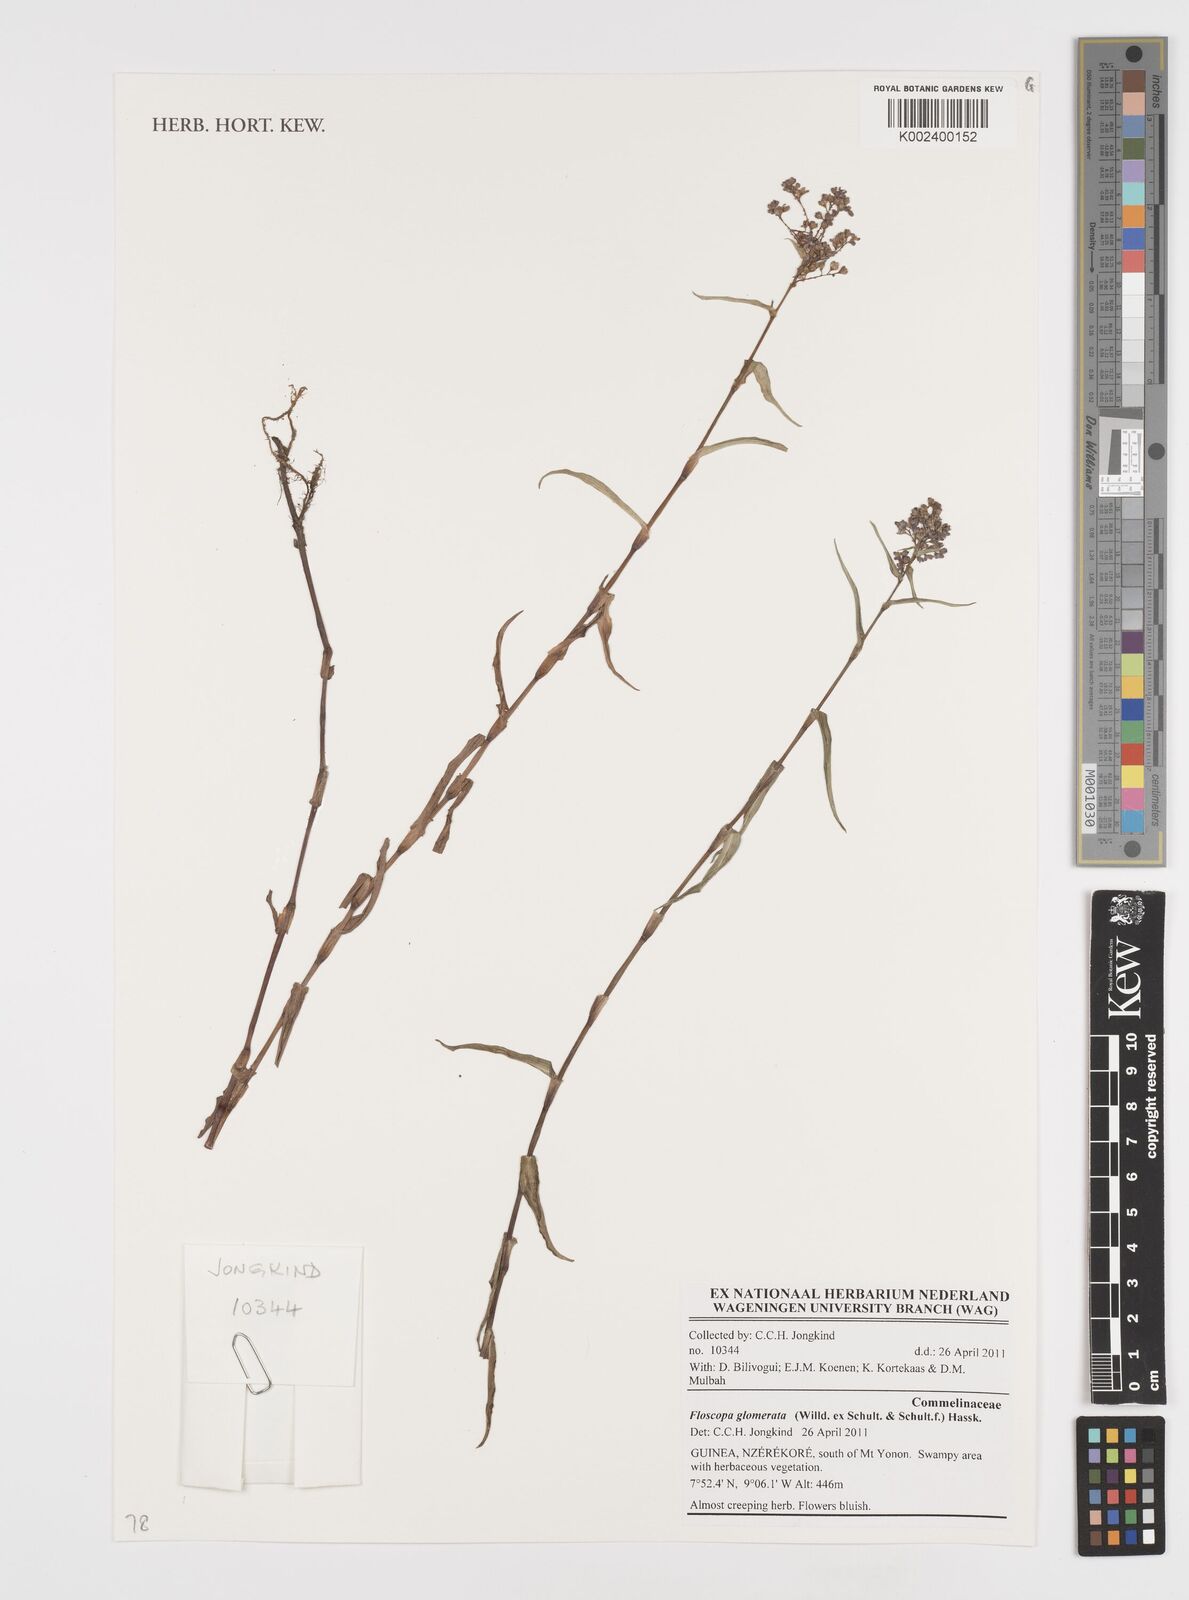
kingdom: Plantae
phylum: Tracheophyta
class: Liliopsida
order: Commelinales
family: Commelinaceae
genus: Floscopa
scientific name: Floscopa glomerata
